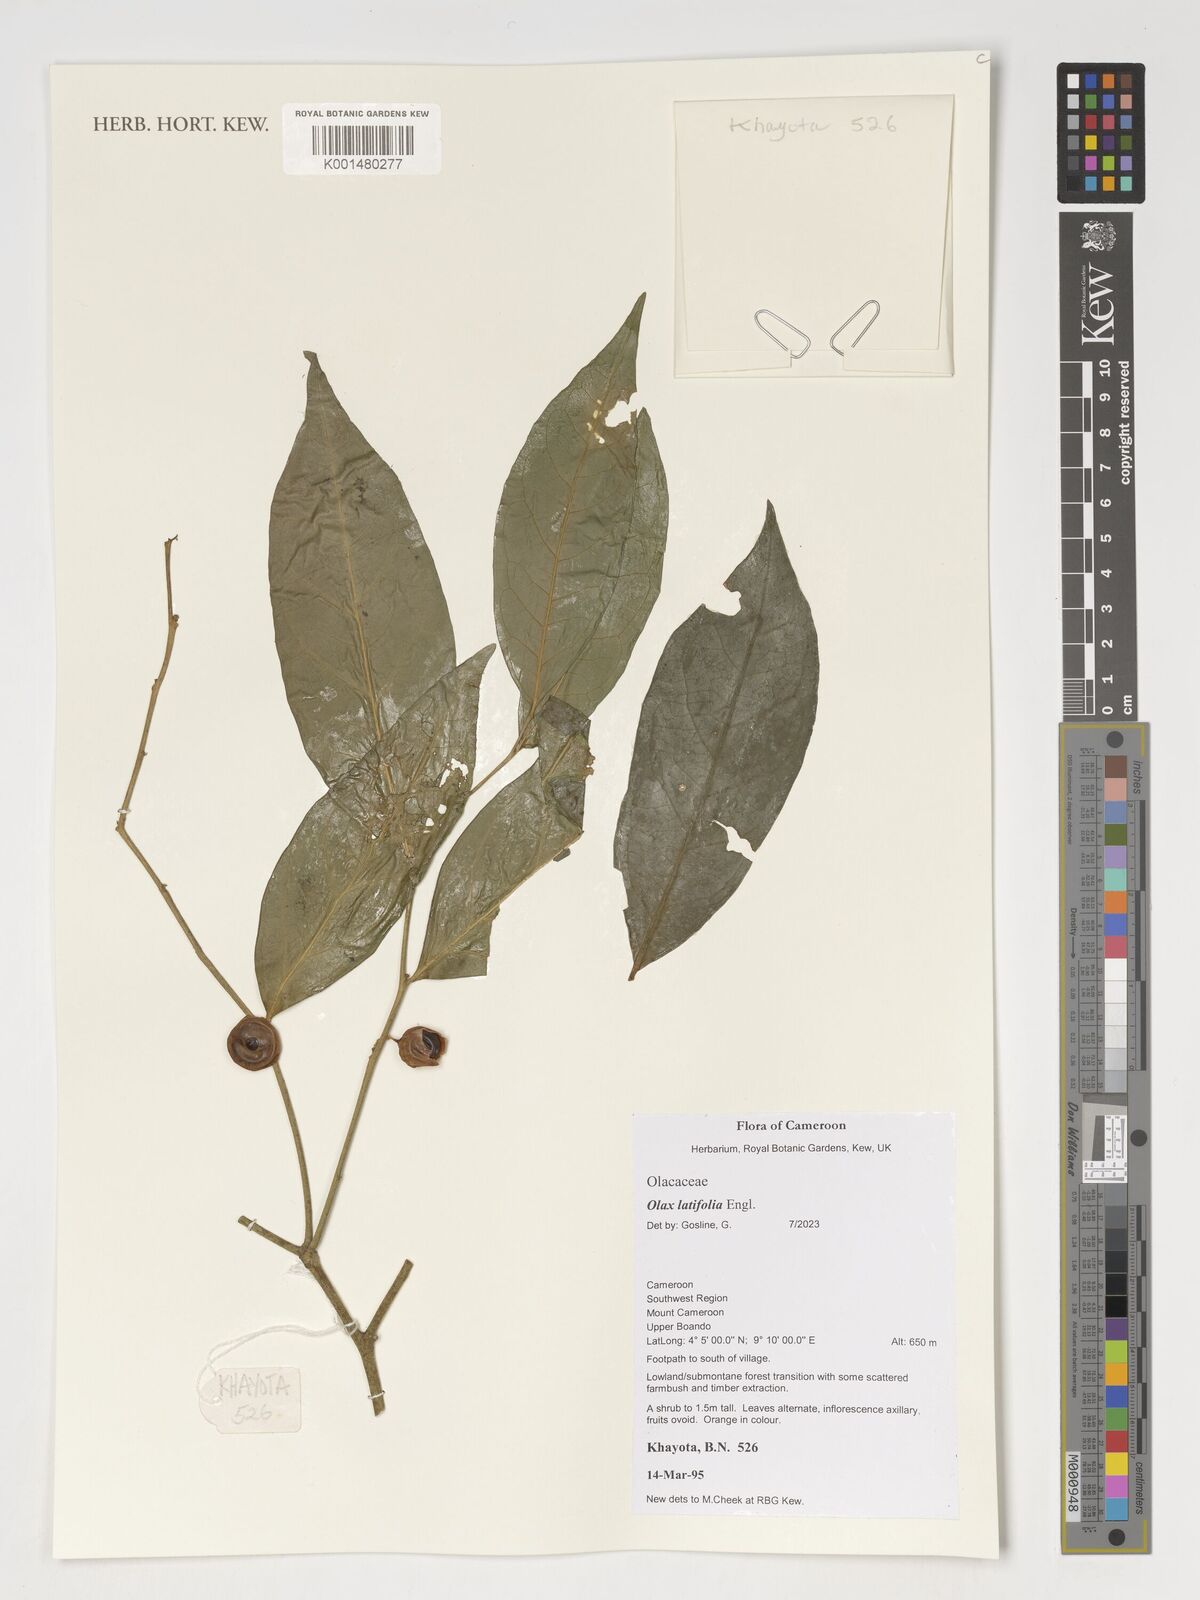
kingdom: Plantae
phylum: Tracheophyta
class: Magnoliopsida
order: Santalales
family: Olacaceae
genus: Olax
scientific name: Olax latifolia
